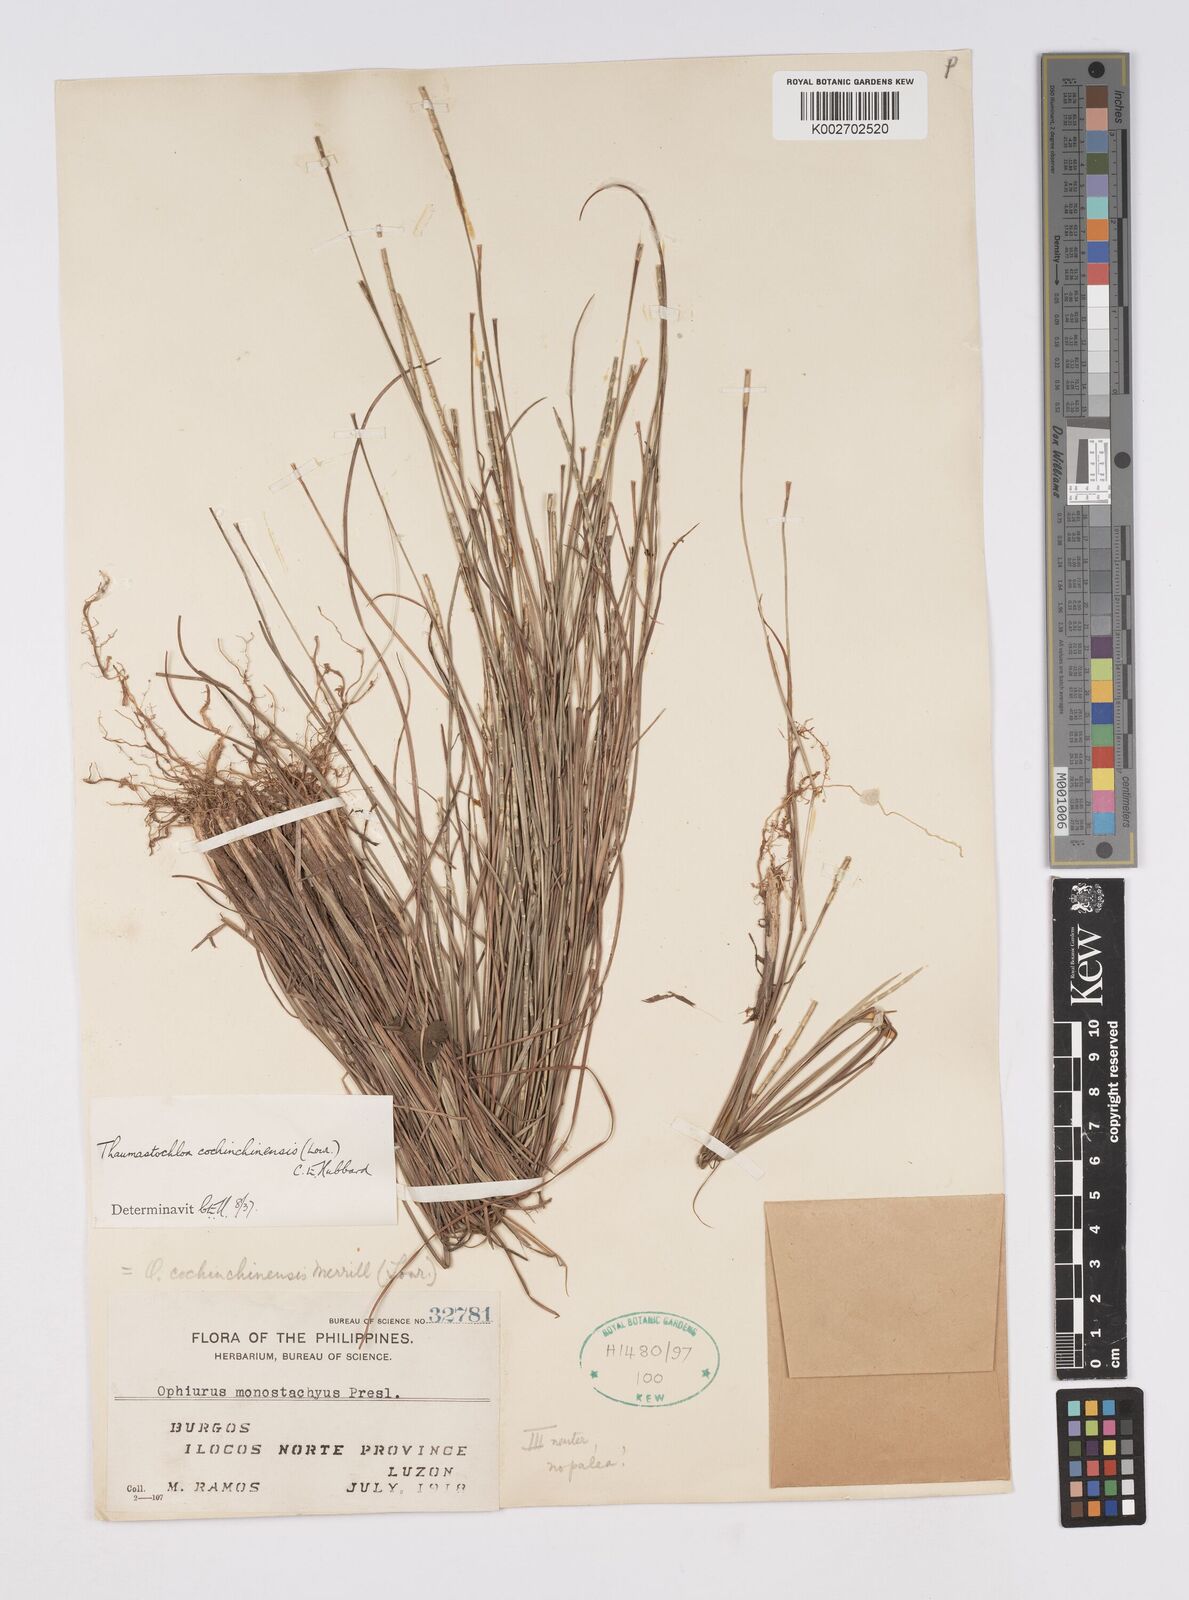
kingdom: Plantae
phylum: Tracheophyta
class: Liliopsida
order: Poales
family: Poaceae
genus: Mnesithea
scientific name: Mnesithea
